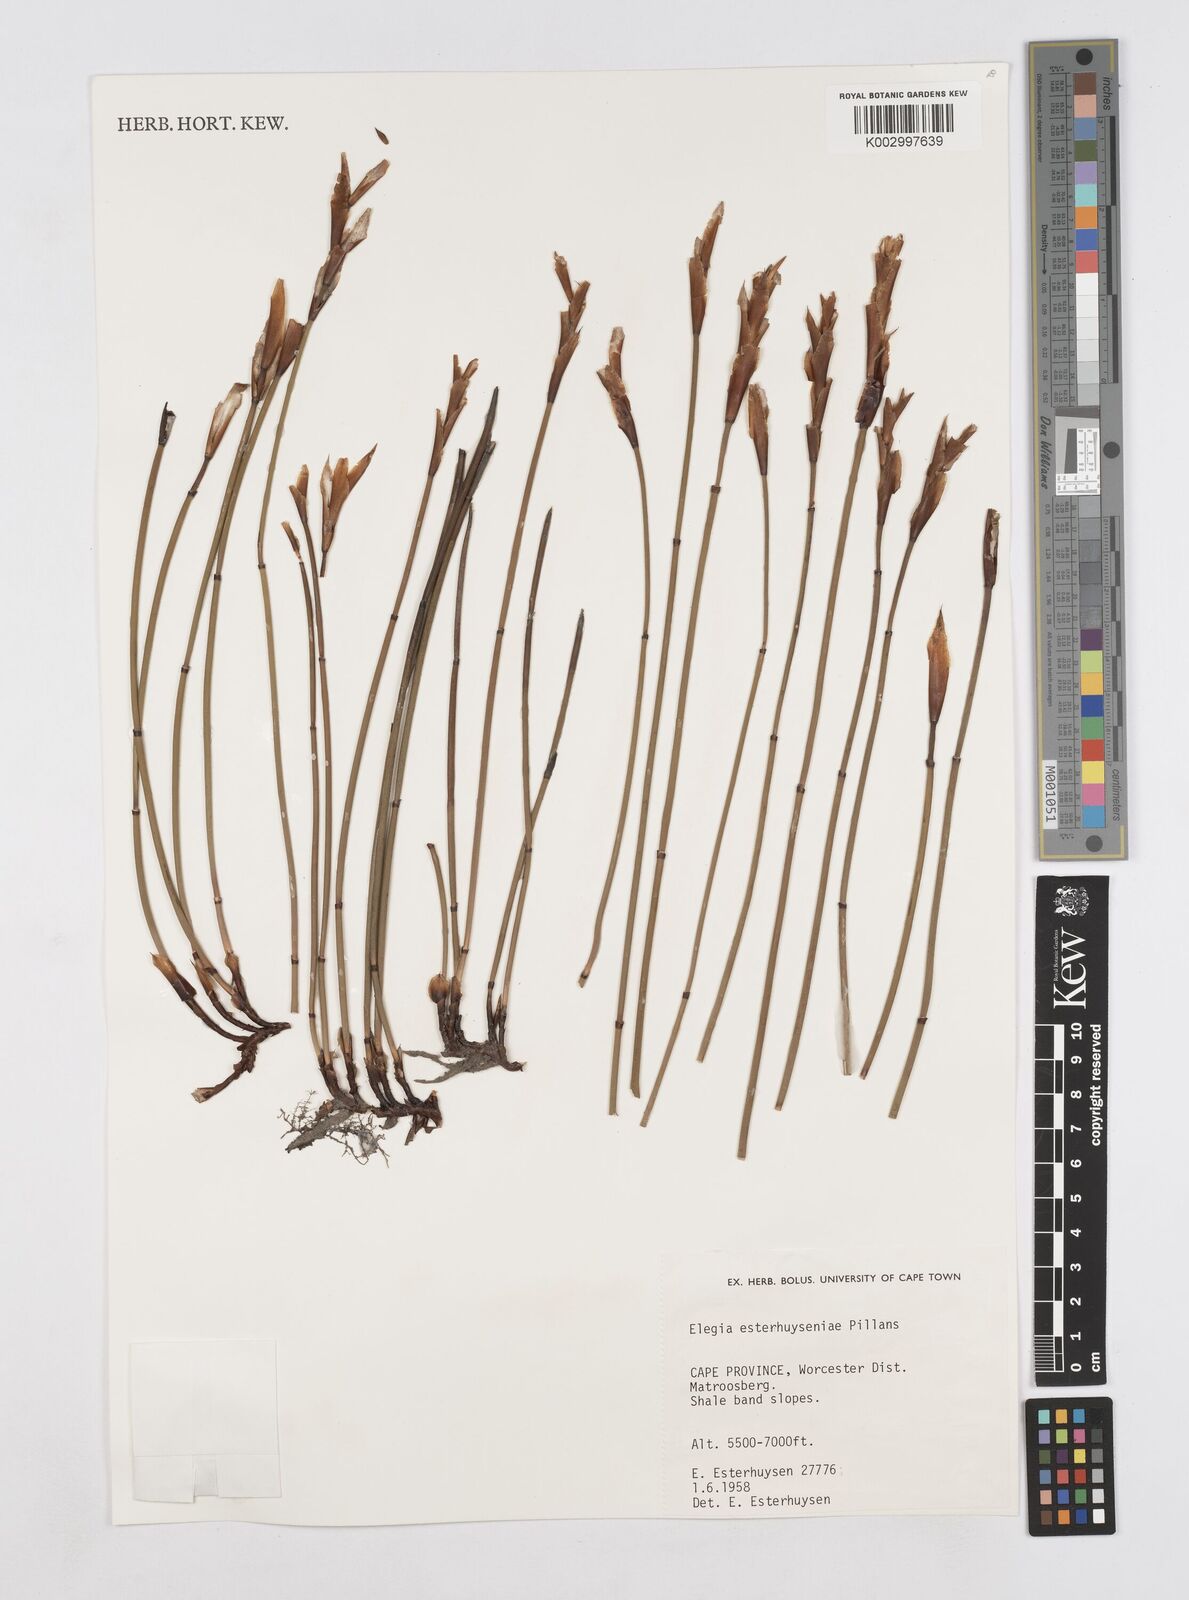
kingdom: Plantae
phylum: Tracheophyta
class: Liliopsida
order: Poales
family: Restionaceae
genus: Elegia
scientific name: Elegia esterhuyseniae
